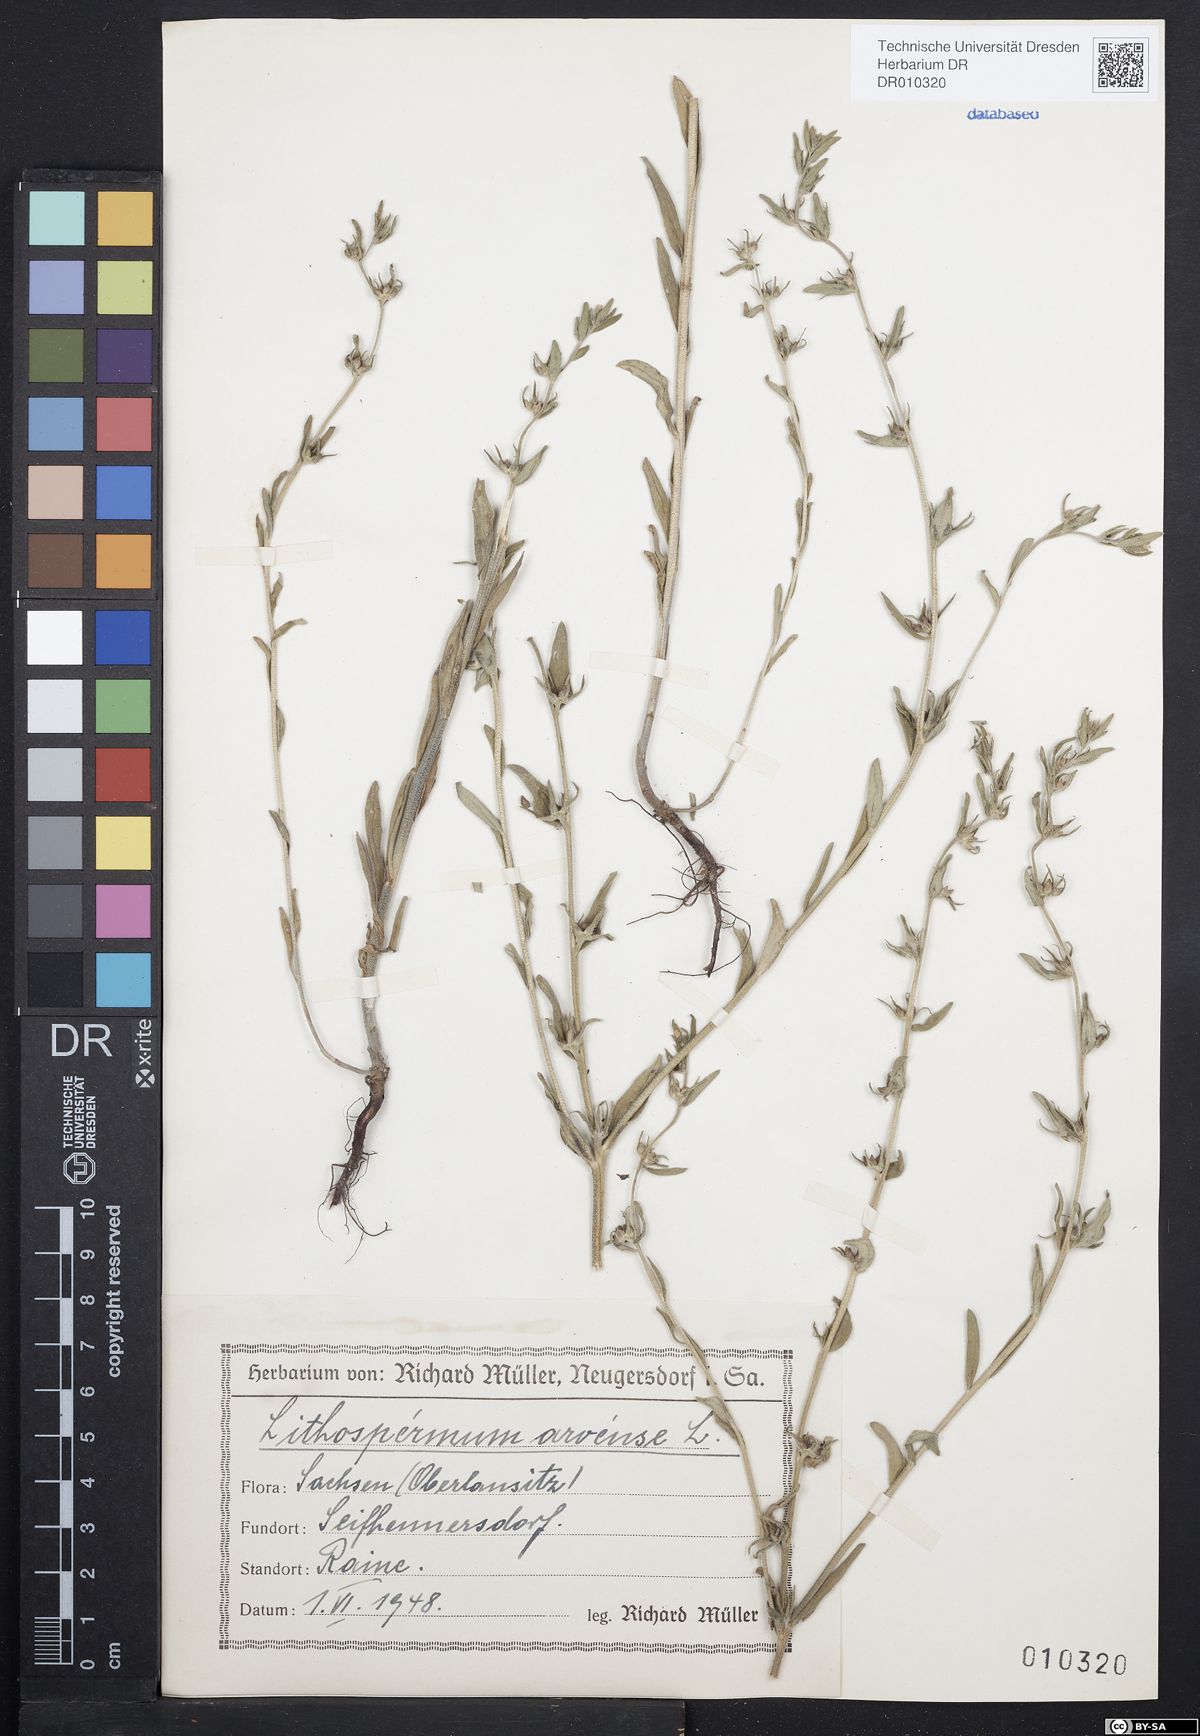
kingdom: Plantae
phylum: Tracheophyta
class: Magnoliopsida
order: Boraginales
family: Boraginaceae
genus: Buglossoides
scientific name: Buglossoides arvensis
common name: Corn gromwell
